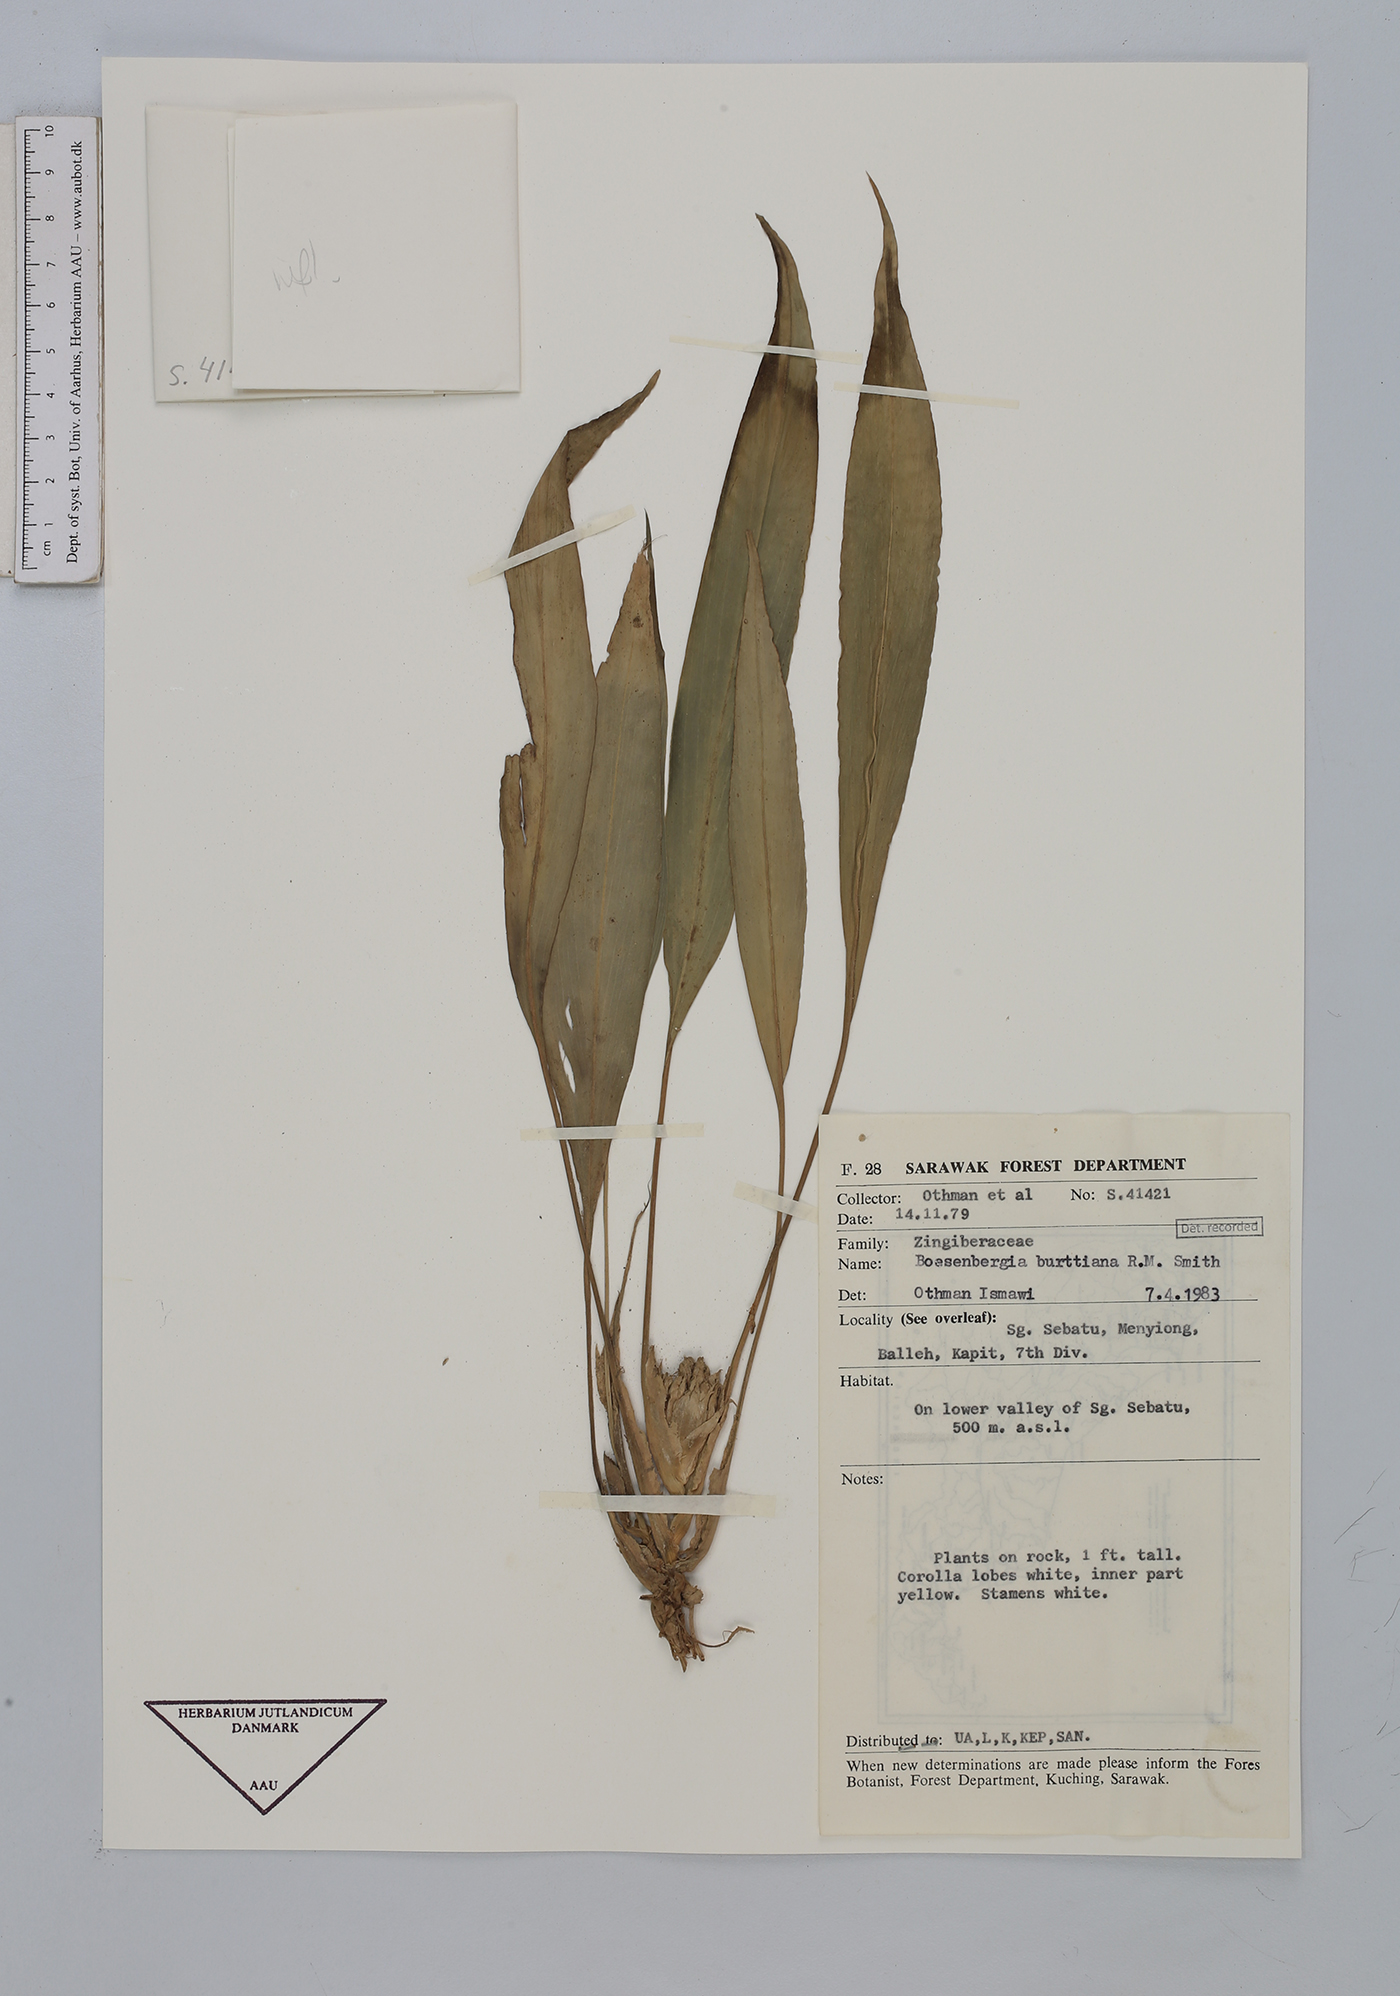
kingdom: Plantae
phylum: Tracheophyta
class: Liliopsida
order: Zingiberales
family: Zingiberaceae
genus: Boesenbergia
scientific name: Boesenbergia burttiana
